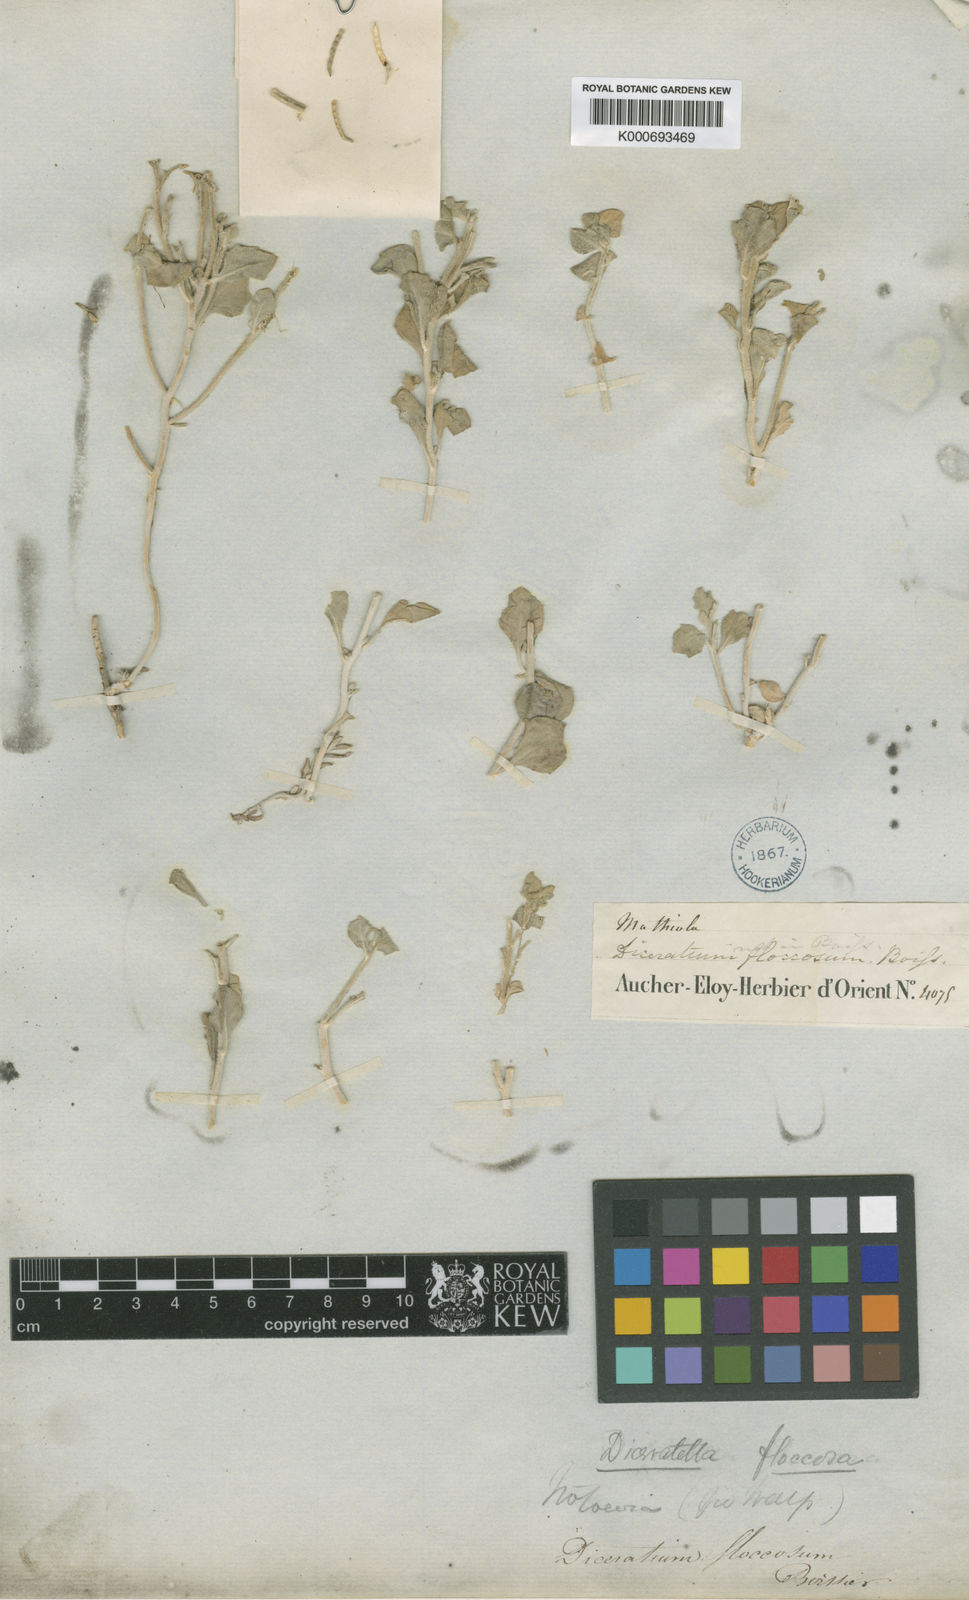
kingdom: Plantae
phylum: Tracheophyta
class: Magnoliopsida
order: Brassicales
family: Brassicaceae
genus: Diceratella
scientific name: Diceratella floccosa
